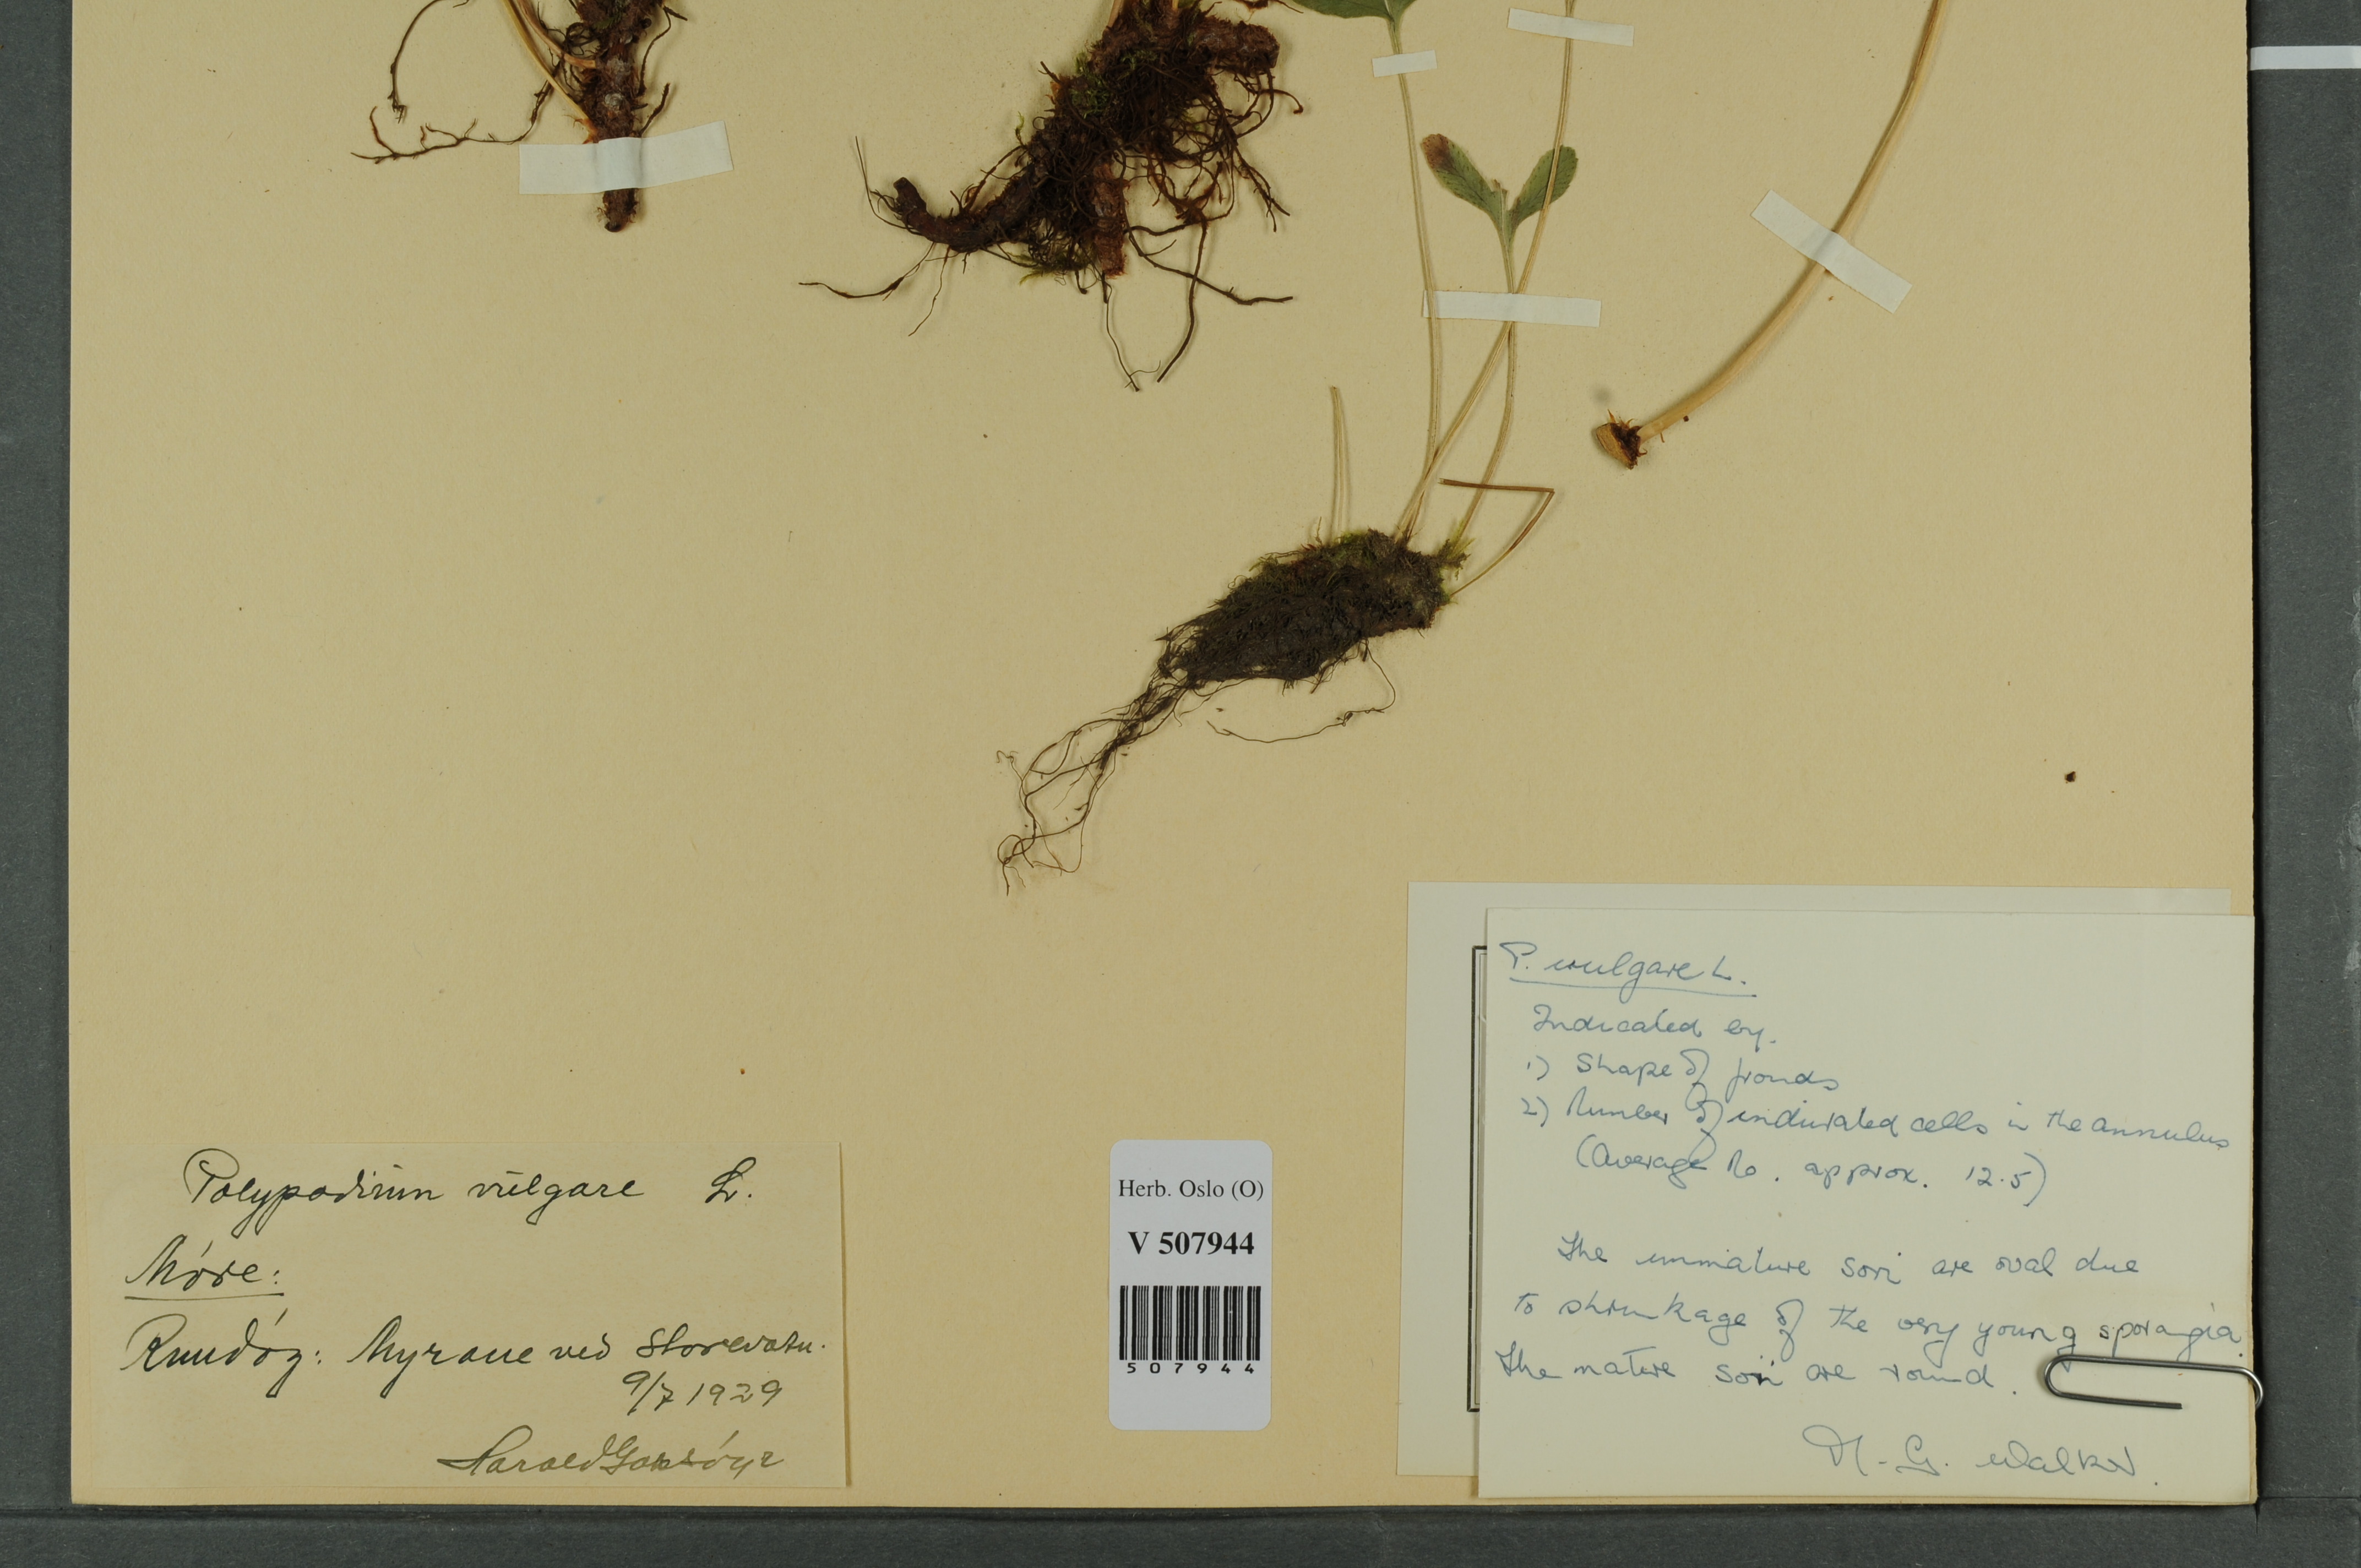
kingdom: Plantae
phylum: Tracheophyta
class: Polypodiopsida
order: Polypodiales
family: Polypodiaceae
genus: Polypodium
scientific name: Polypodium vulgare
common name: Common polypody
